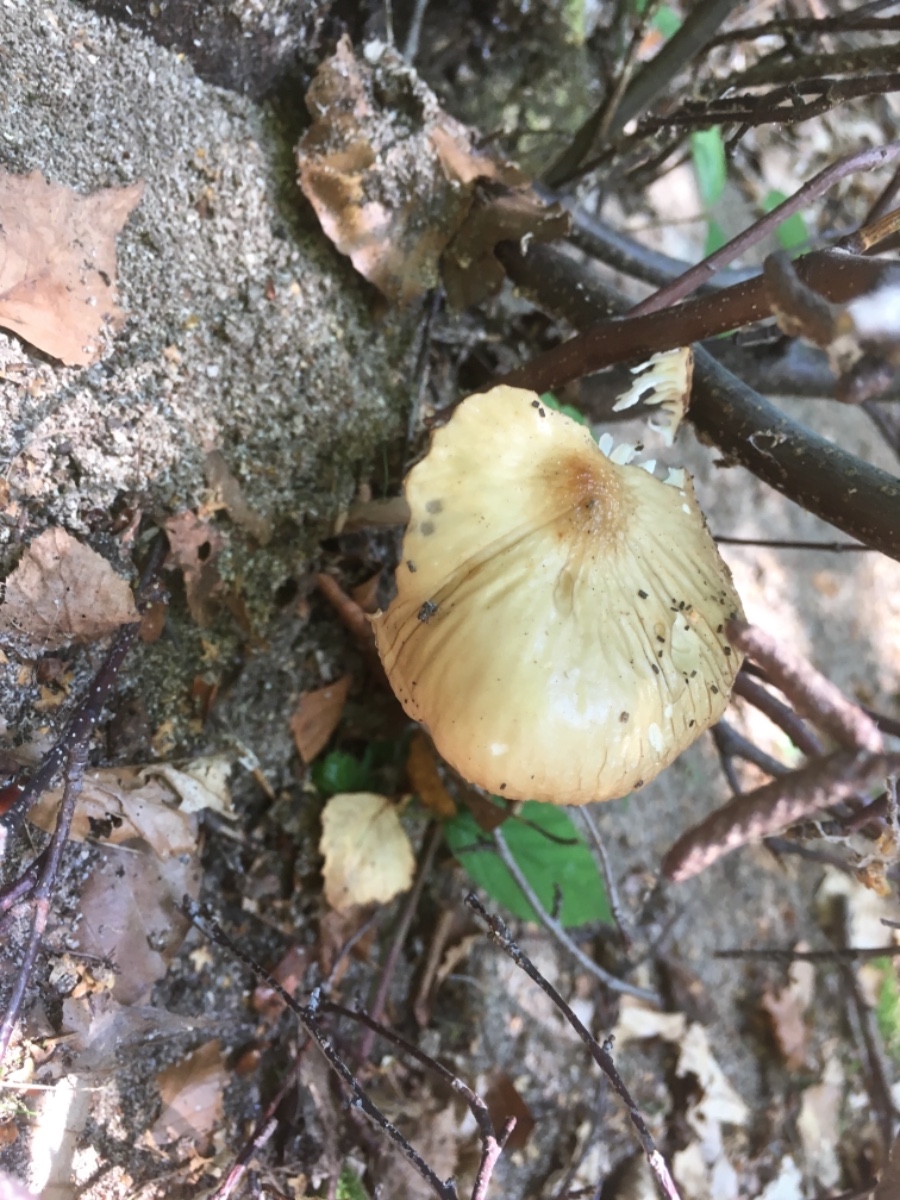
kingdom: Fungi
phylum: Basidiomycota
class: Agaricomycetes
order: Agaricales
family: Physalacriaceae
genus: Hymenopellis
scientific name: Hymenopellis radicata
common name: almindelig pælerodshat
